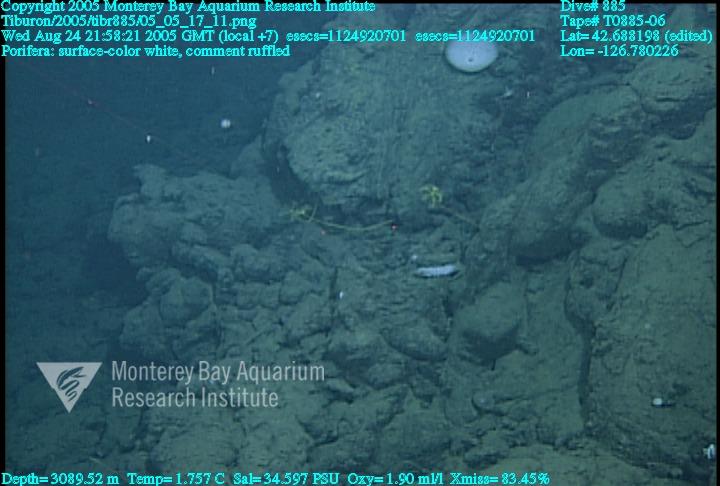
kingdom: Animalia
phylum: Porifera
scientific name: Porifera
